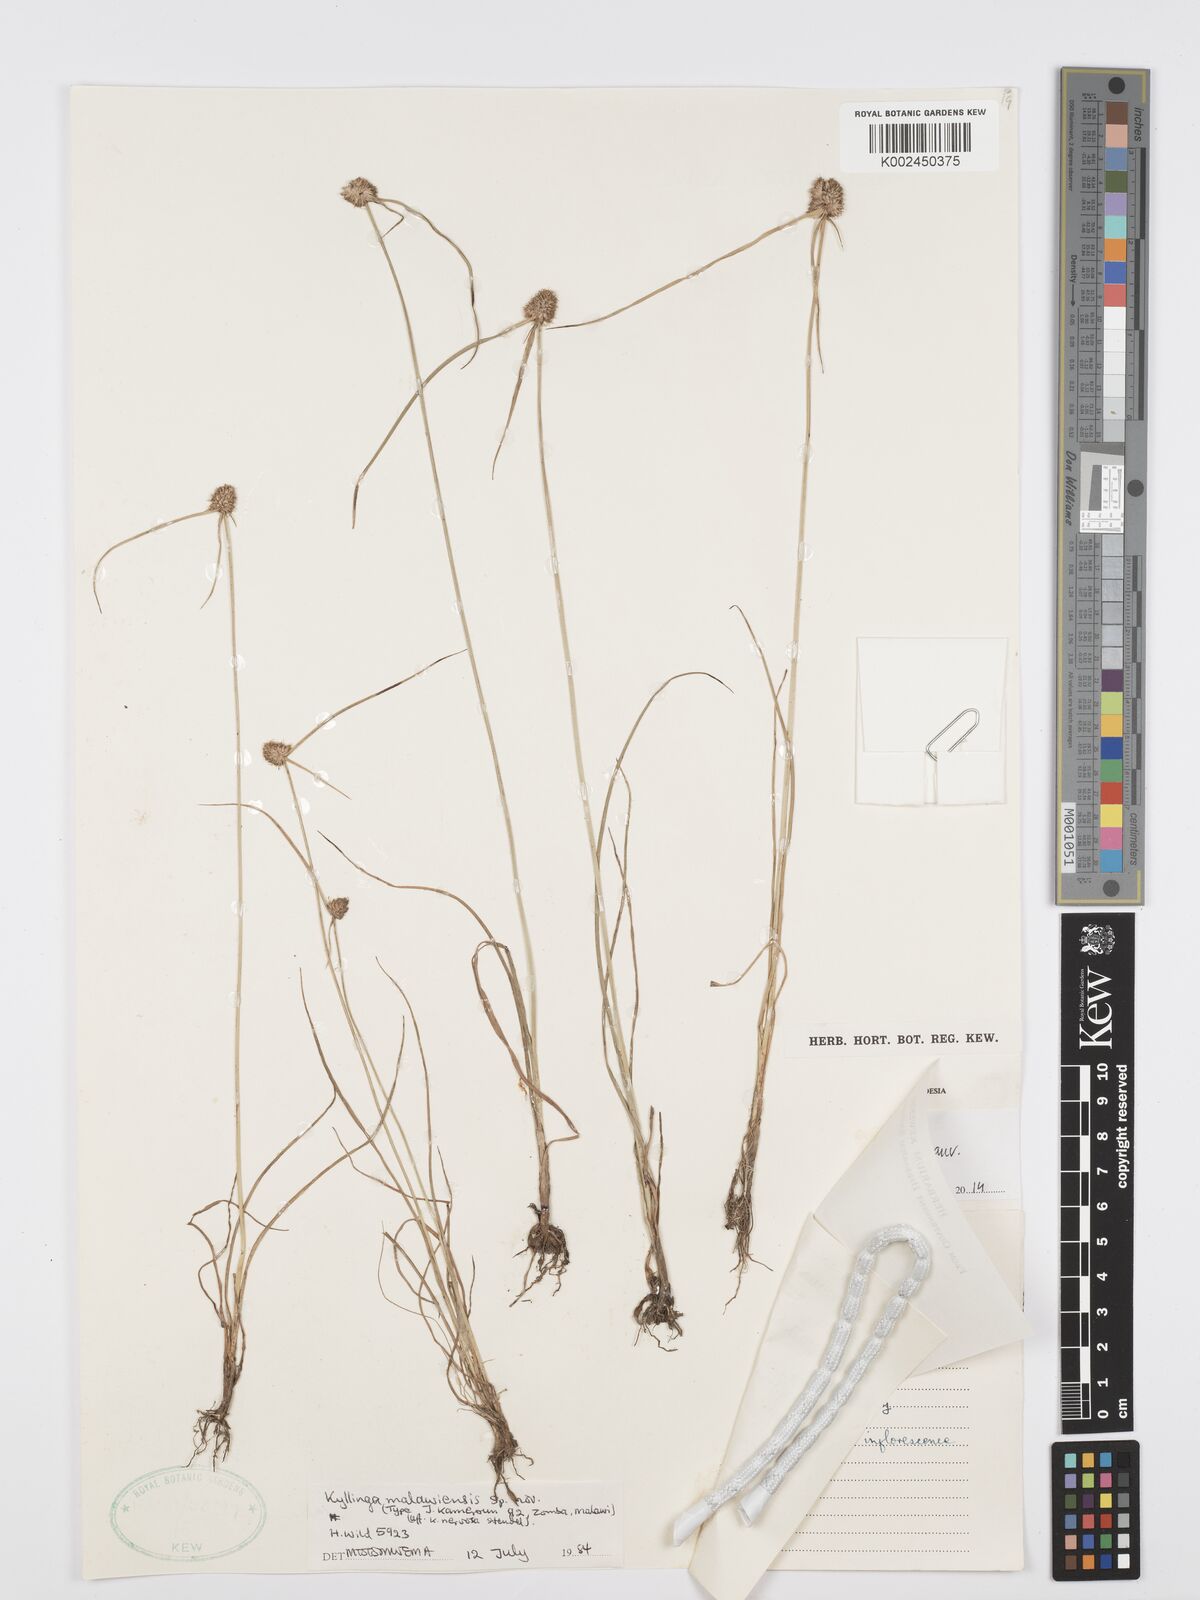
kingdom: Plantae
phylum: Tracheophyta
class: Liliopsida
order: Poales
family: Cyperaceae
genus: Cyperus
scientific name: Cyperus
